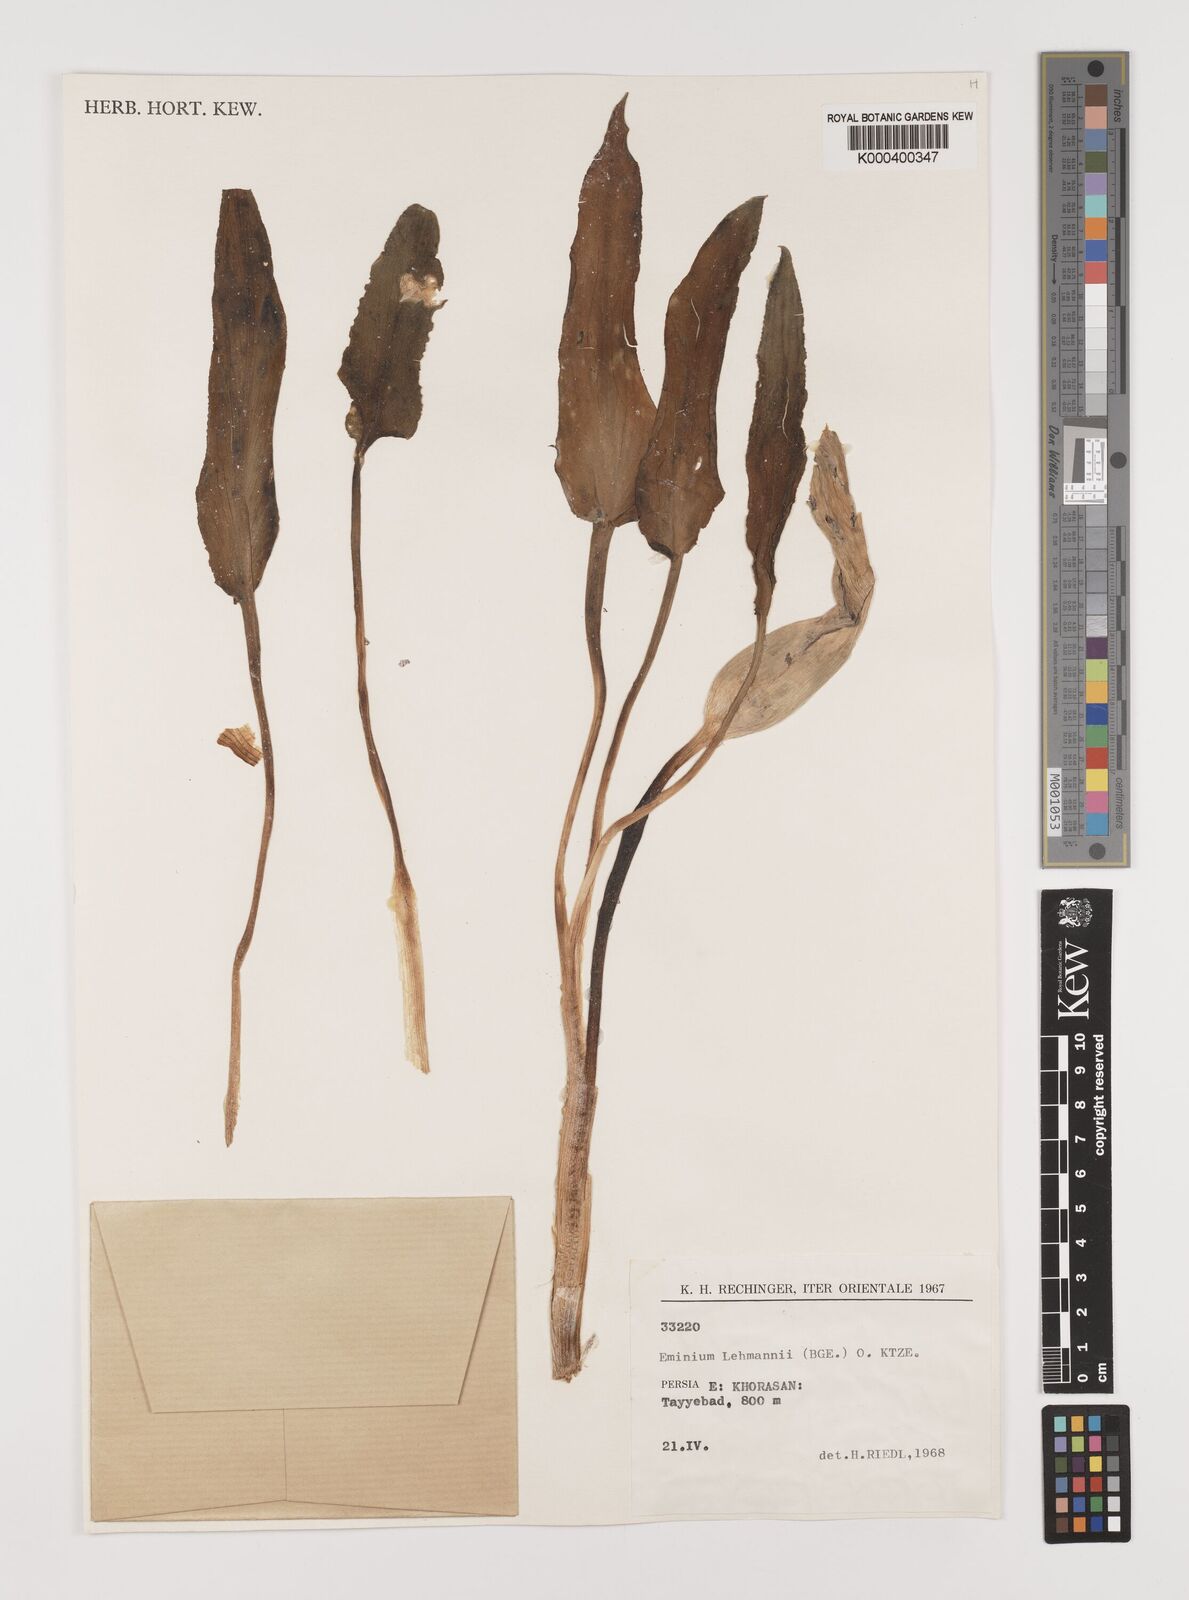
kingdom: Plantae
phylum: Tracheophyta
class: Liliopsida
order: Alismatales
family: Araceae
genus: Eminium
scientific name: Eminium lehmannii
